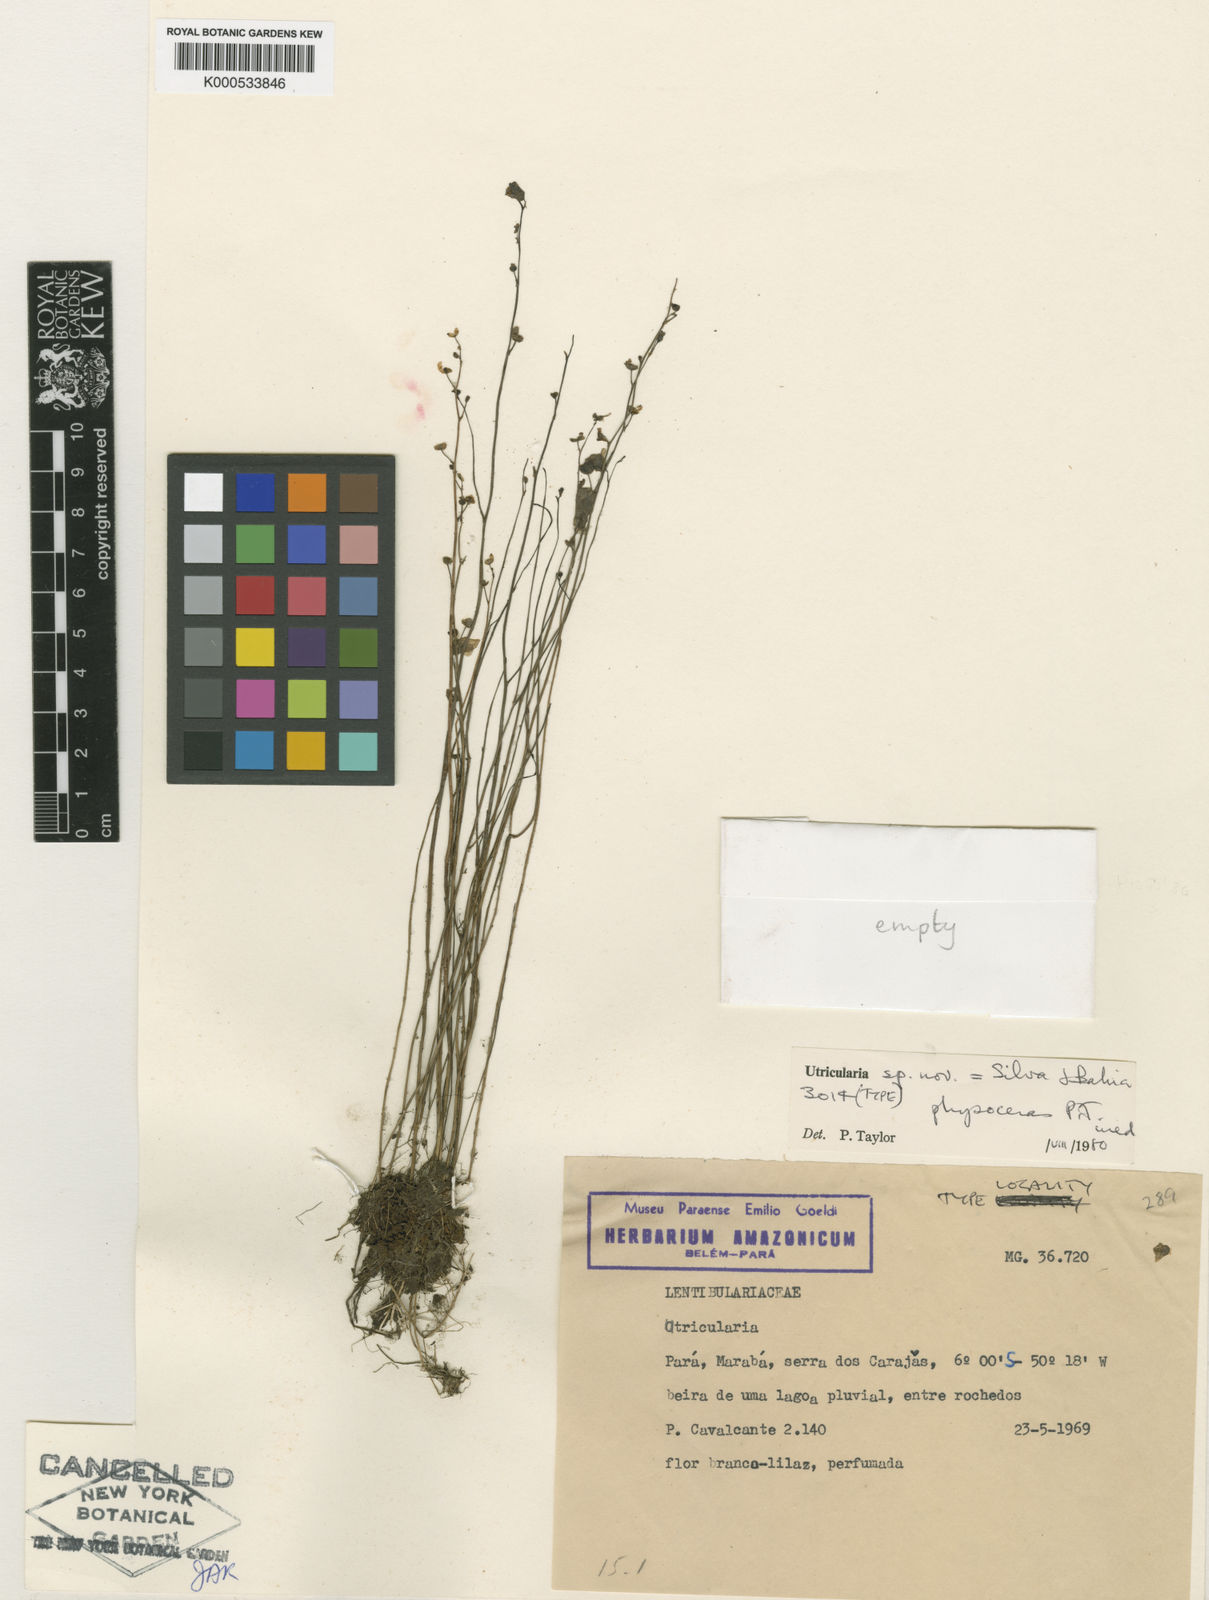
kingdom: Plantae
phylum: Tracheophyta
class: Magnoliopsida
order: Lamiales
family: Lentibulariaceae
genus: Utricularia
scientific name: Utricularia physoceras
